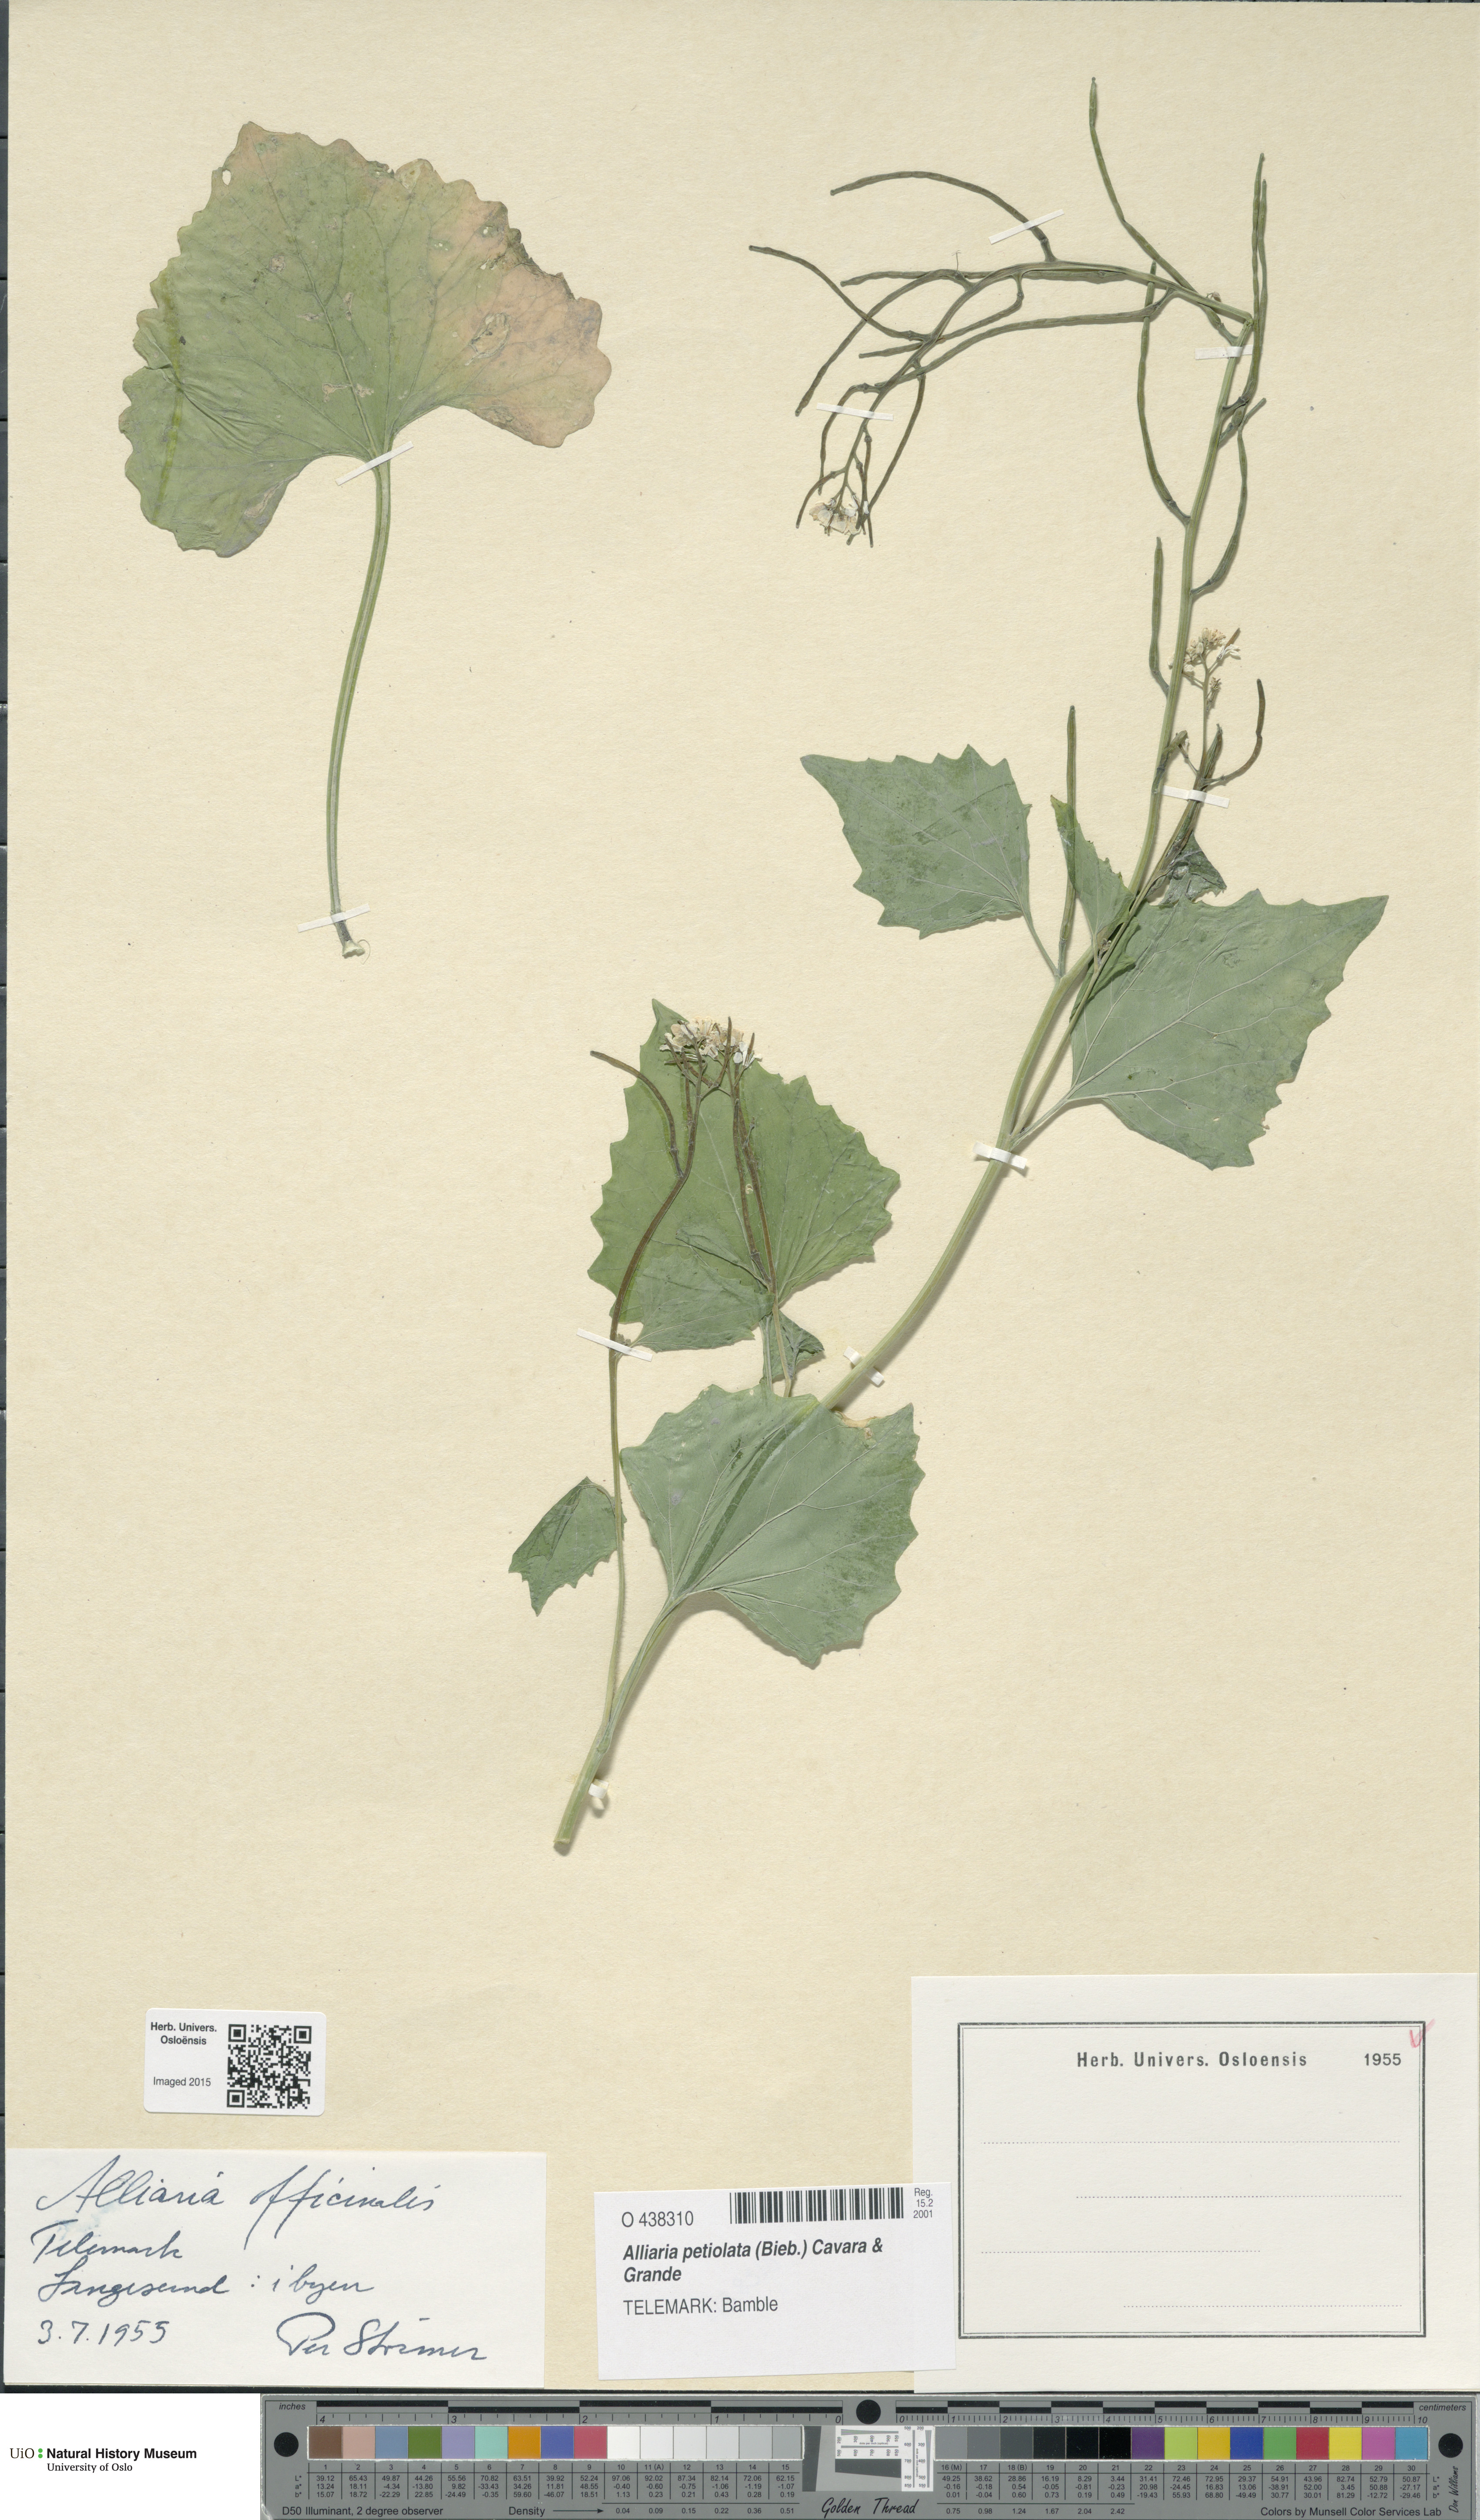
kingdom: Plantae
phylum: Tracheophyta
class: Magnoliopsida
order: Brassicales
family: Brassicaceae
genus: Alliaria
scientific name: Alliaria petiolata
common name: Garlic mustard
